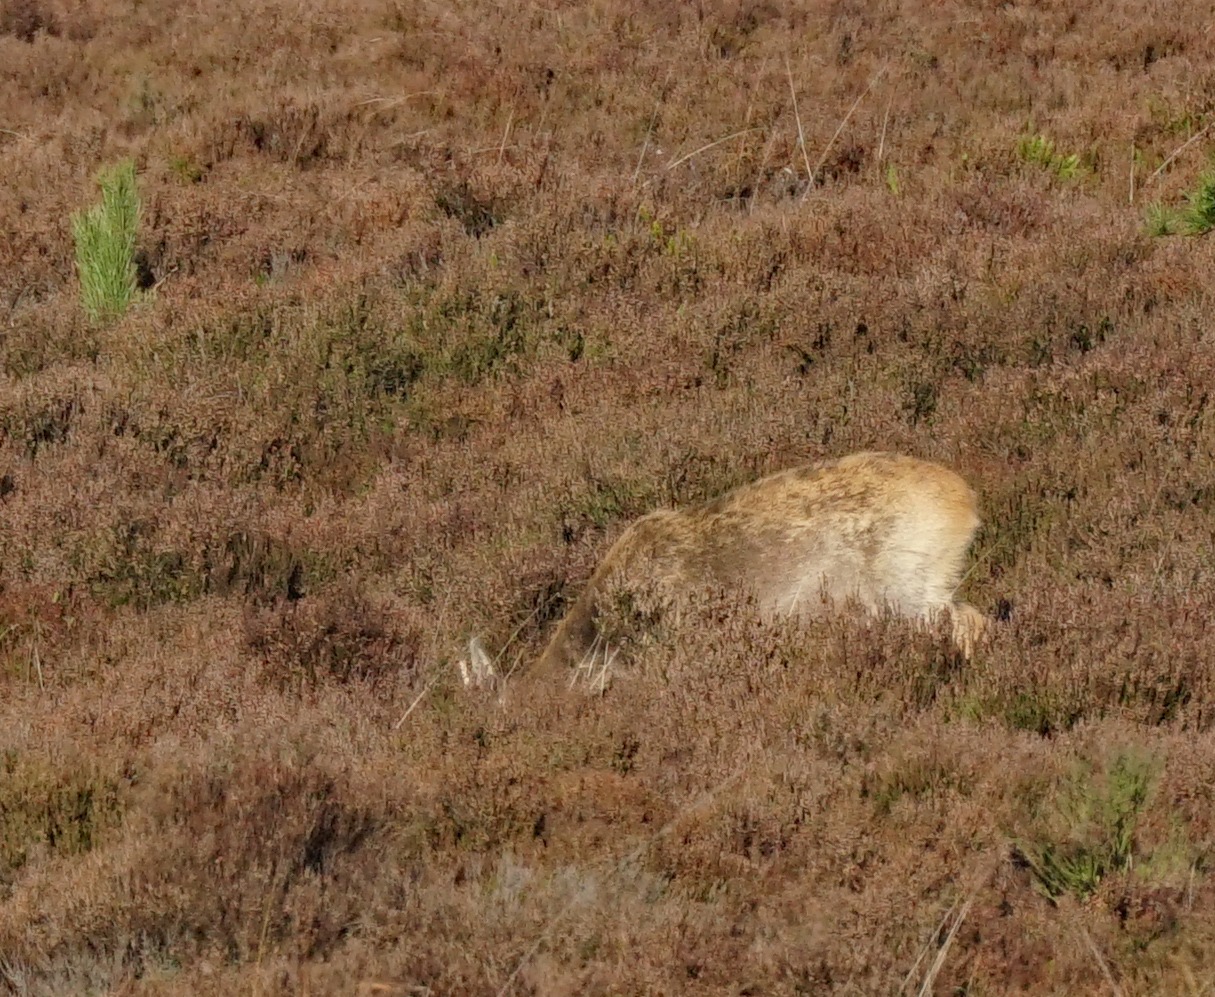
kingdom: Animalia
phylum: Chordata
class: Mammalia
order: Artiodactyla
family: Cervidae
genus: Capreolus
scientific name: Capreolus capreolus
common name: Rådyr
